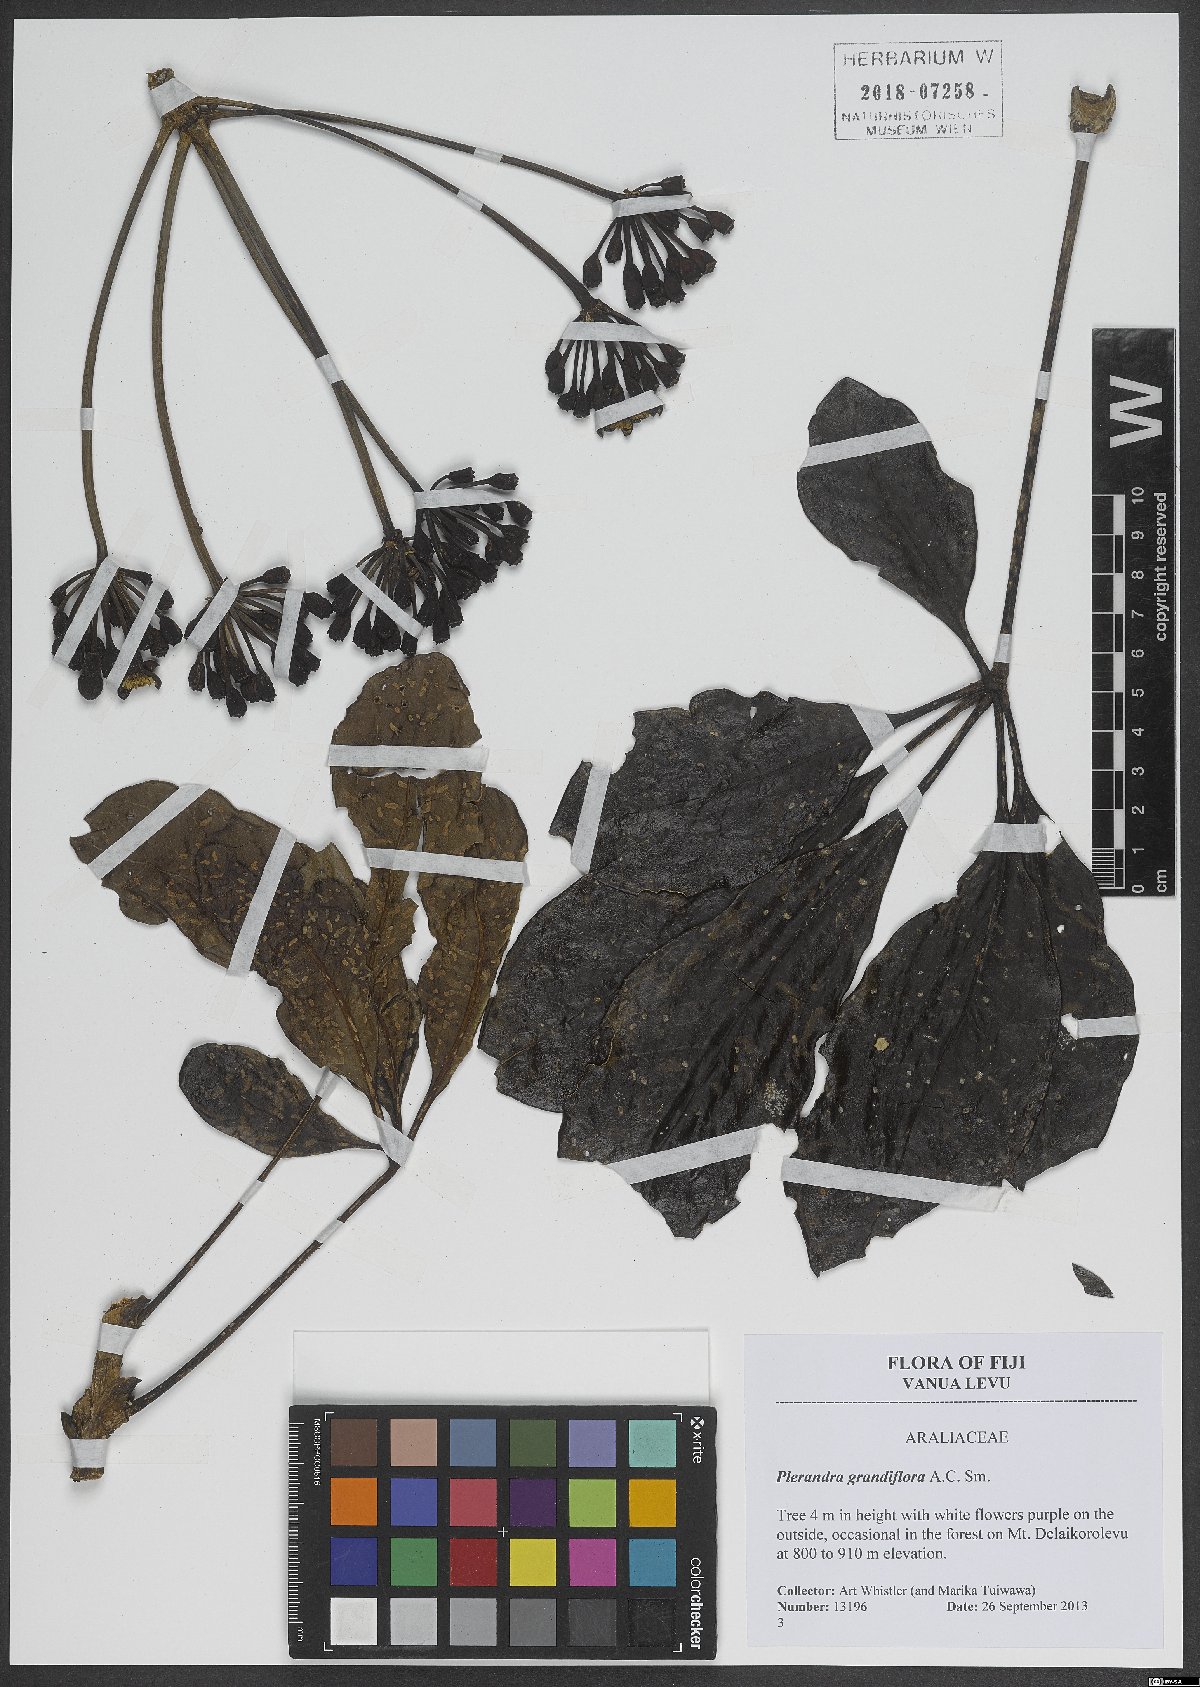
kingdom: Plantae
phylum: Tracheophyta
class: Magnoliopsida
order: Apiales
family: Araliaceae
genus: Plerandra
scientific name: Plerandra grandiflora
